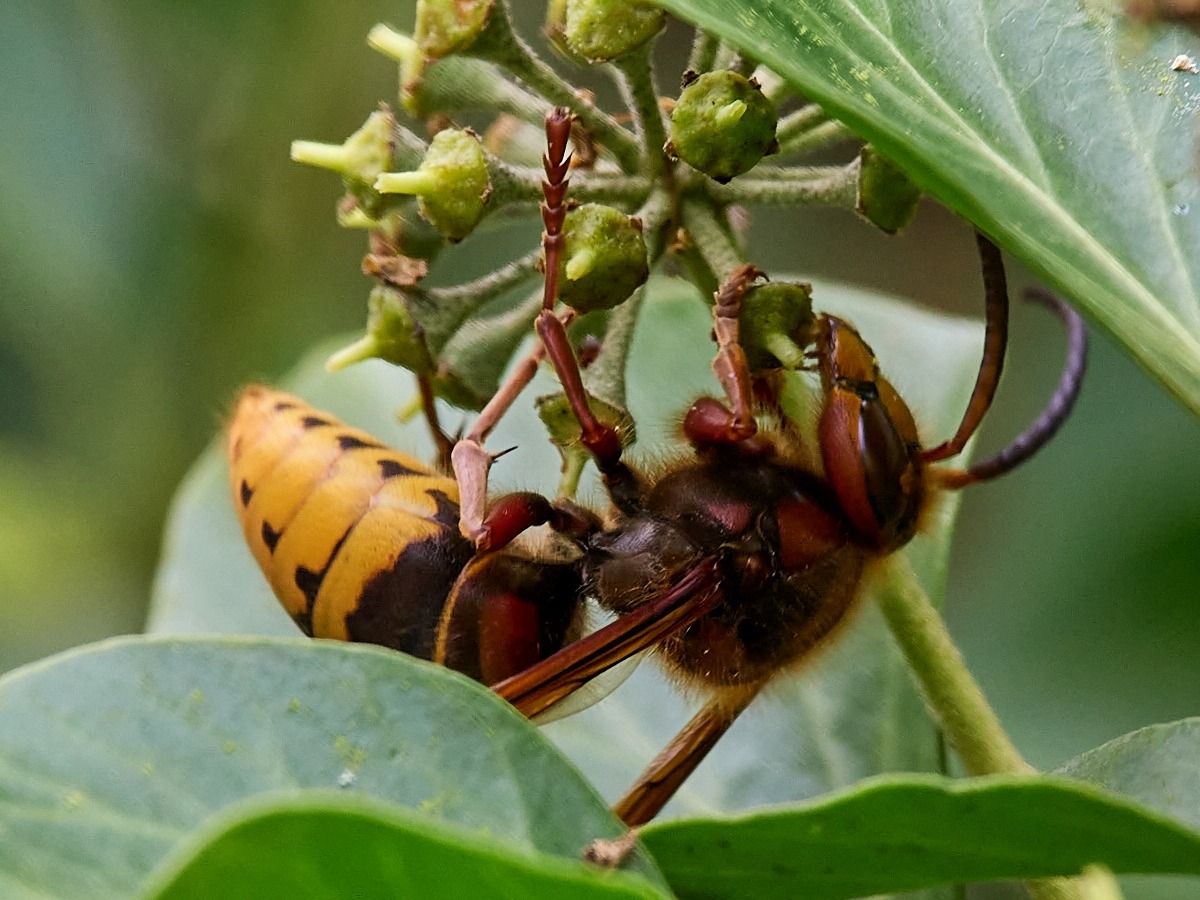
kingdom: Animalia
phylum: Arthropoda
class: Insecta
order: Hymenoptera
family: Vespidae
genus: Vespa
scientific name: Vespa crabro
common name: Stor gedehams
